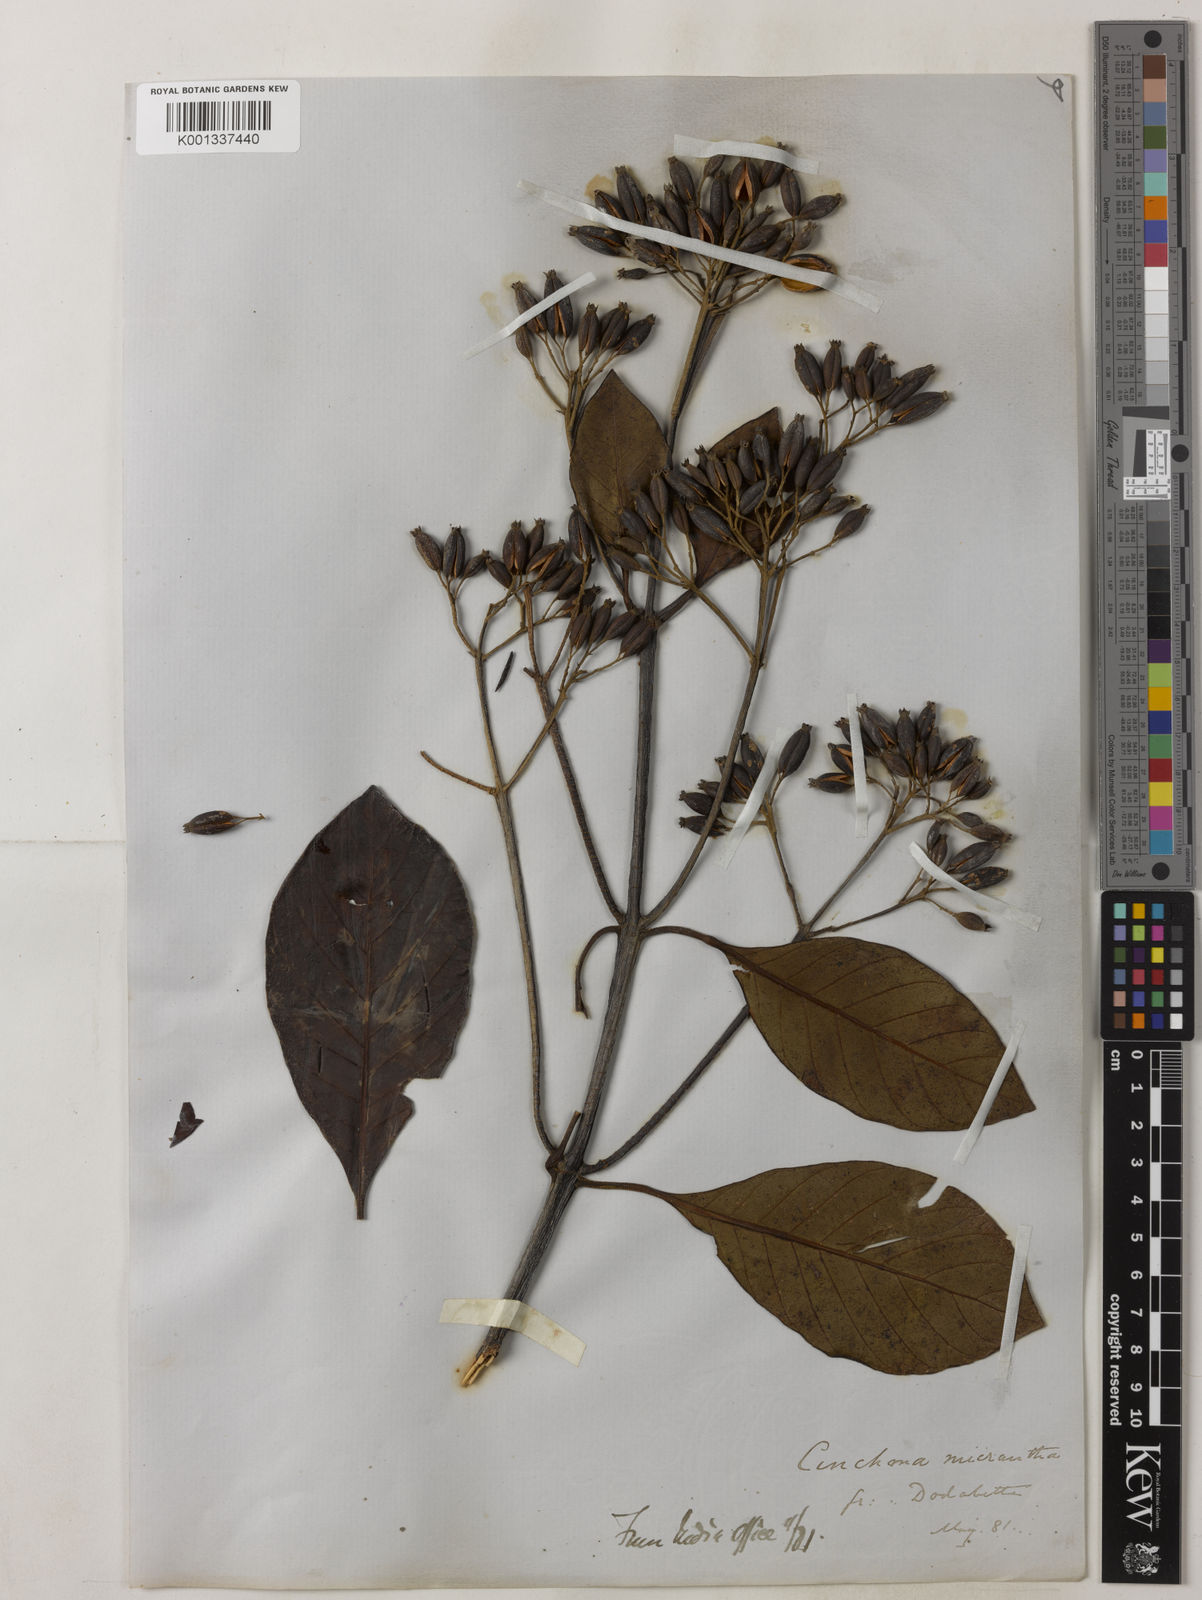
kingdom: Plantae
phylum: Tracheophyta
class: Magnoliopsida
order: Gentianales
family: Rubiaceae
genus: Cinchona
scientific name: Cinchona micrantha
